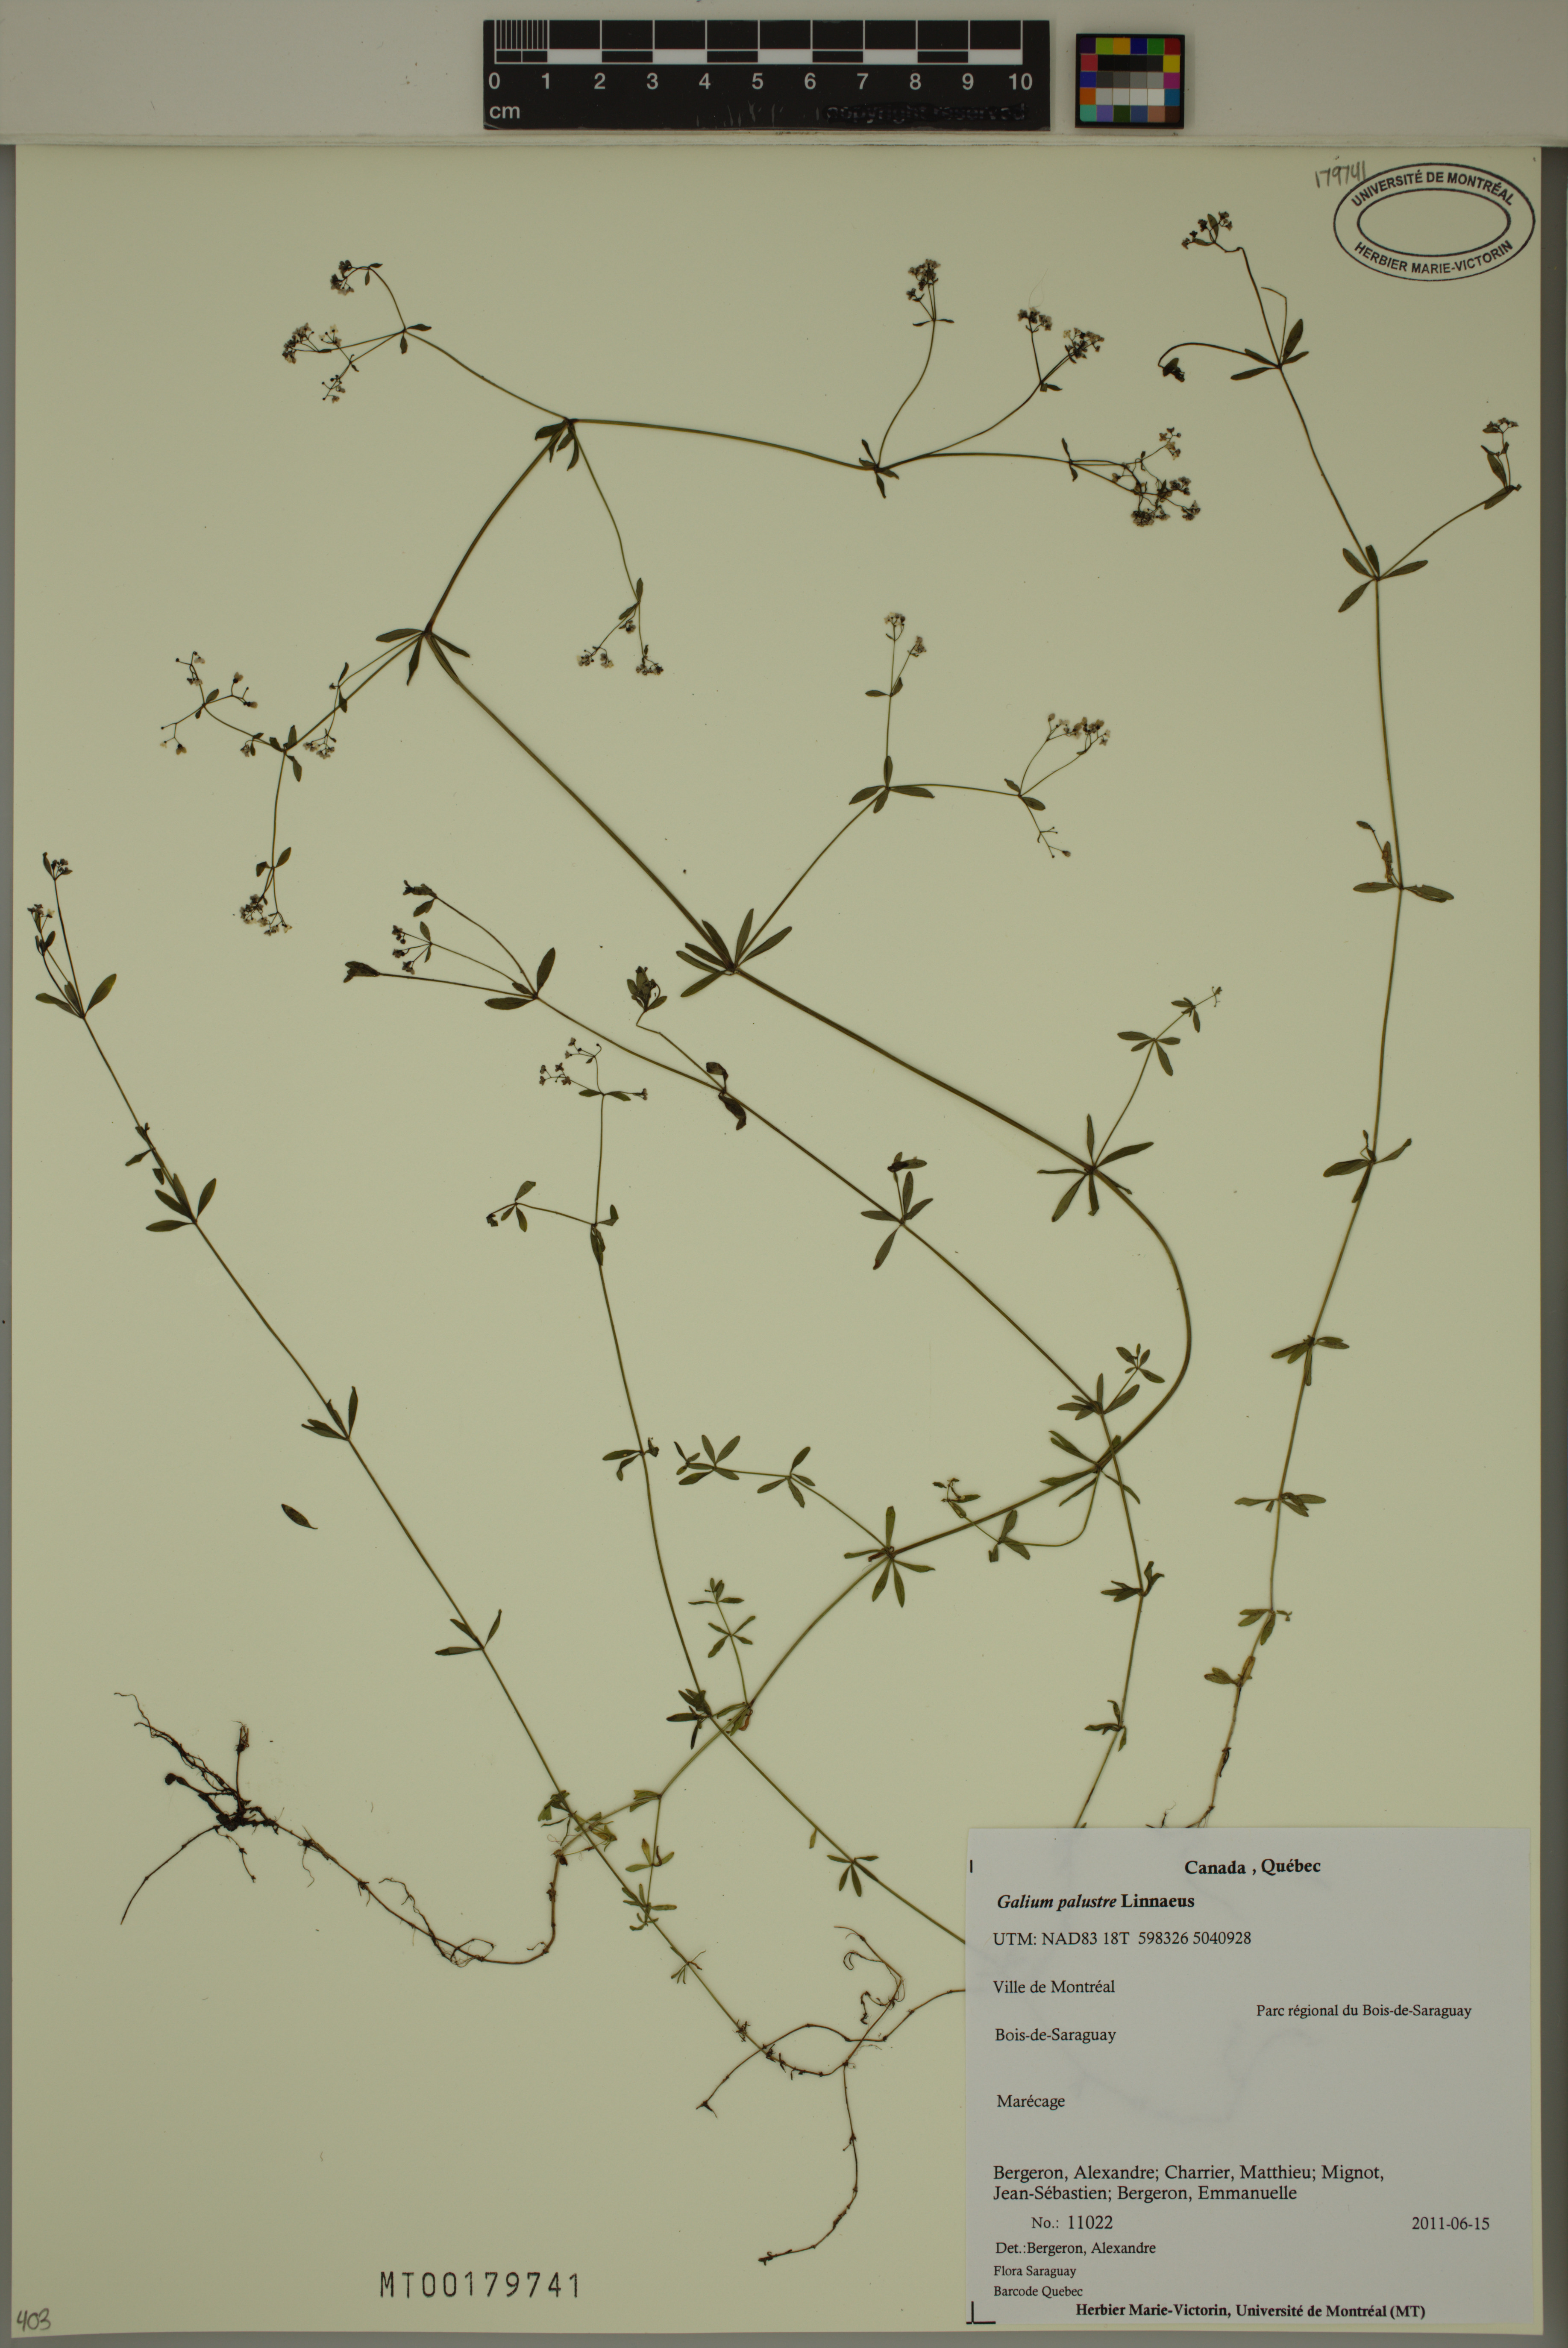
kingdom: Plantae
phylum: Tracheophyta
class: Magnoliopsida
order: Gentianales
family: Rubiaceae
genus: Galium
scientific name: Galium palustre
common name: Common marsh-bedstraw
